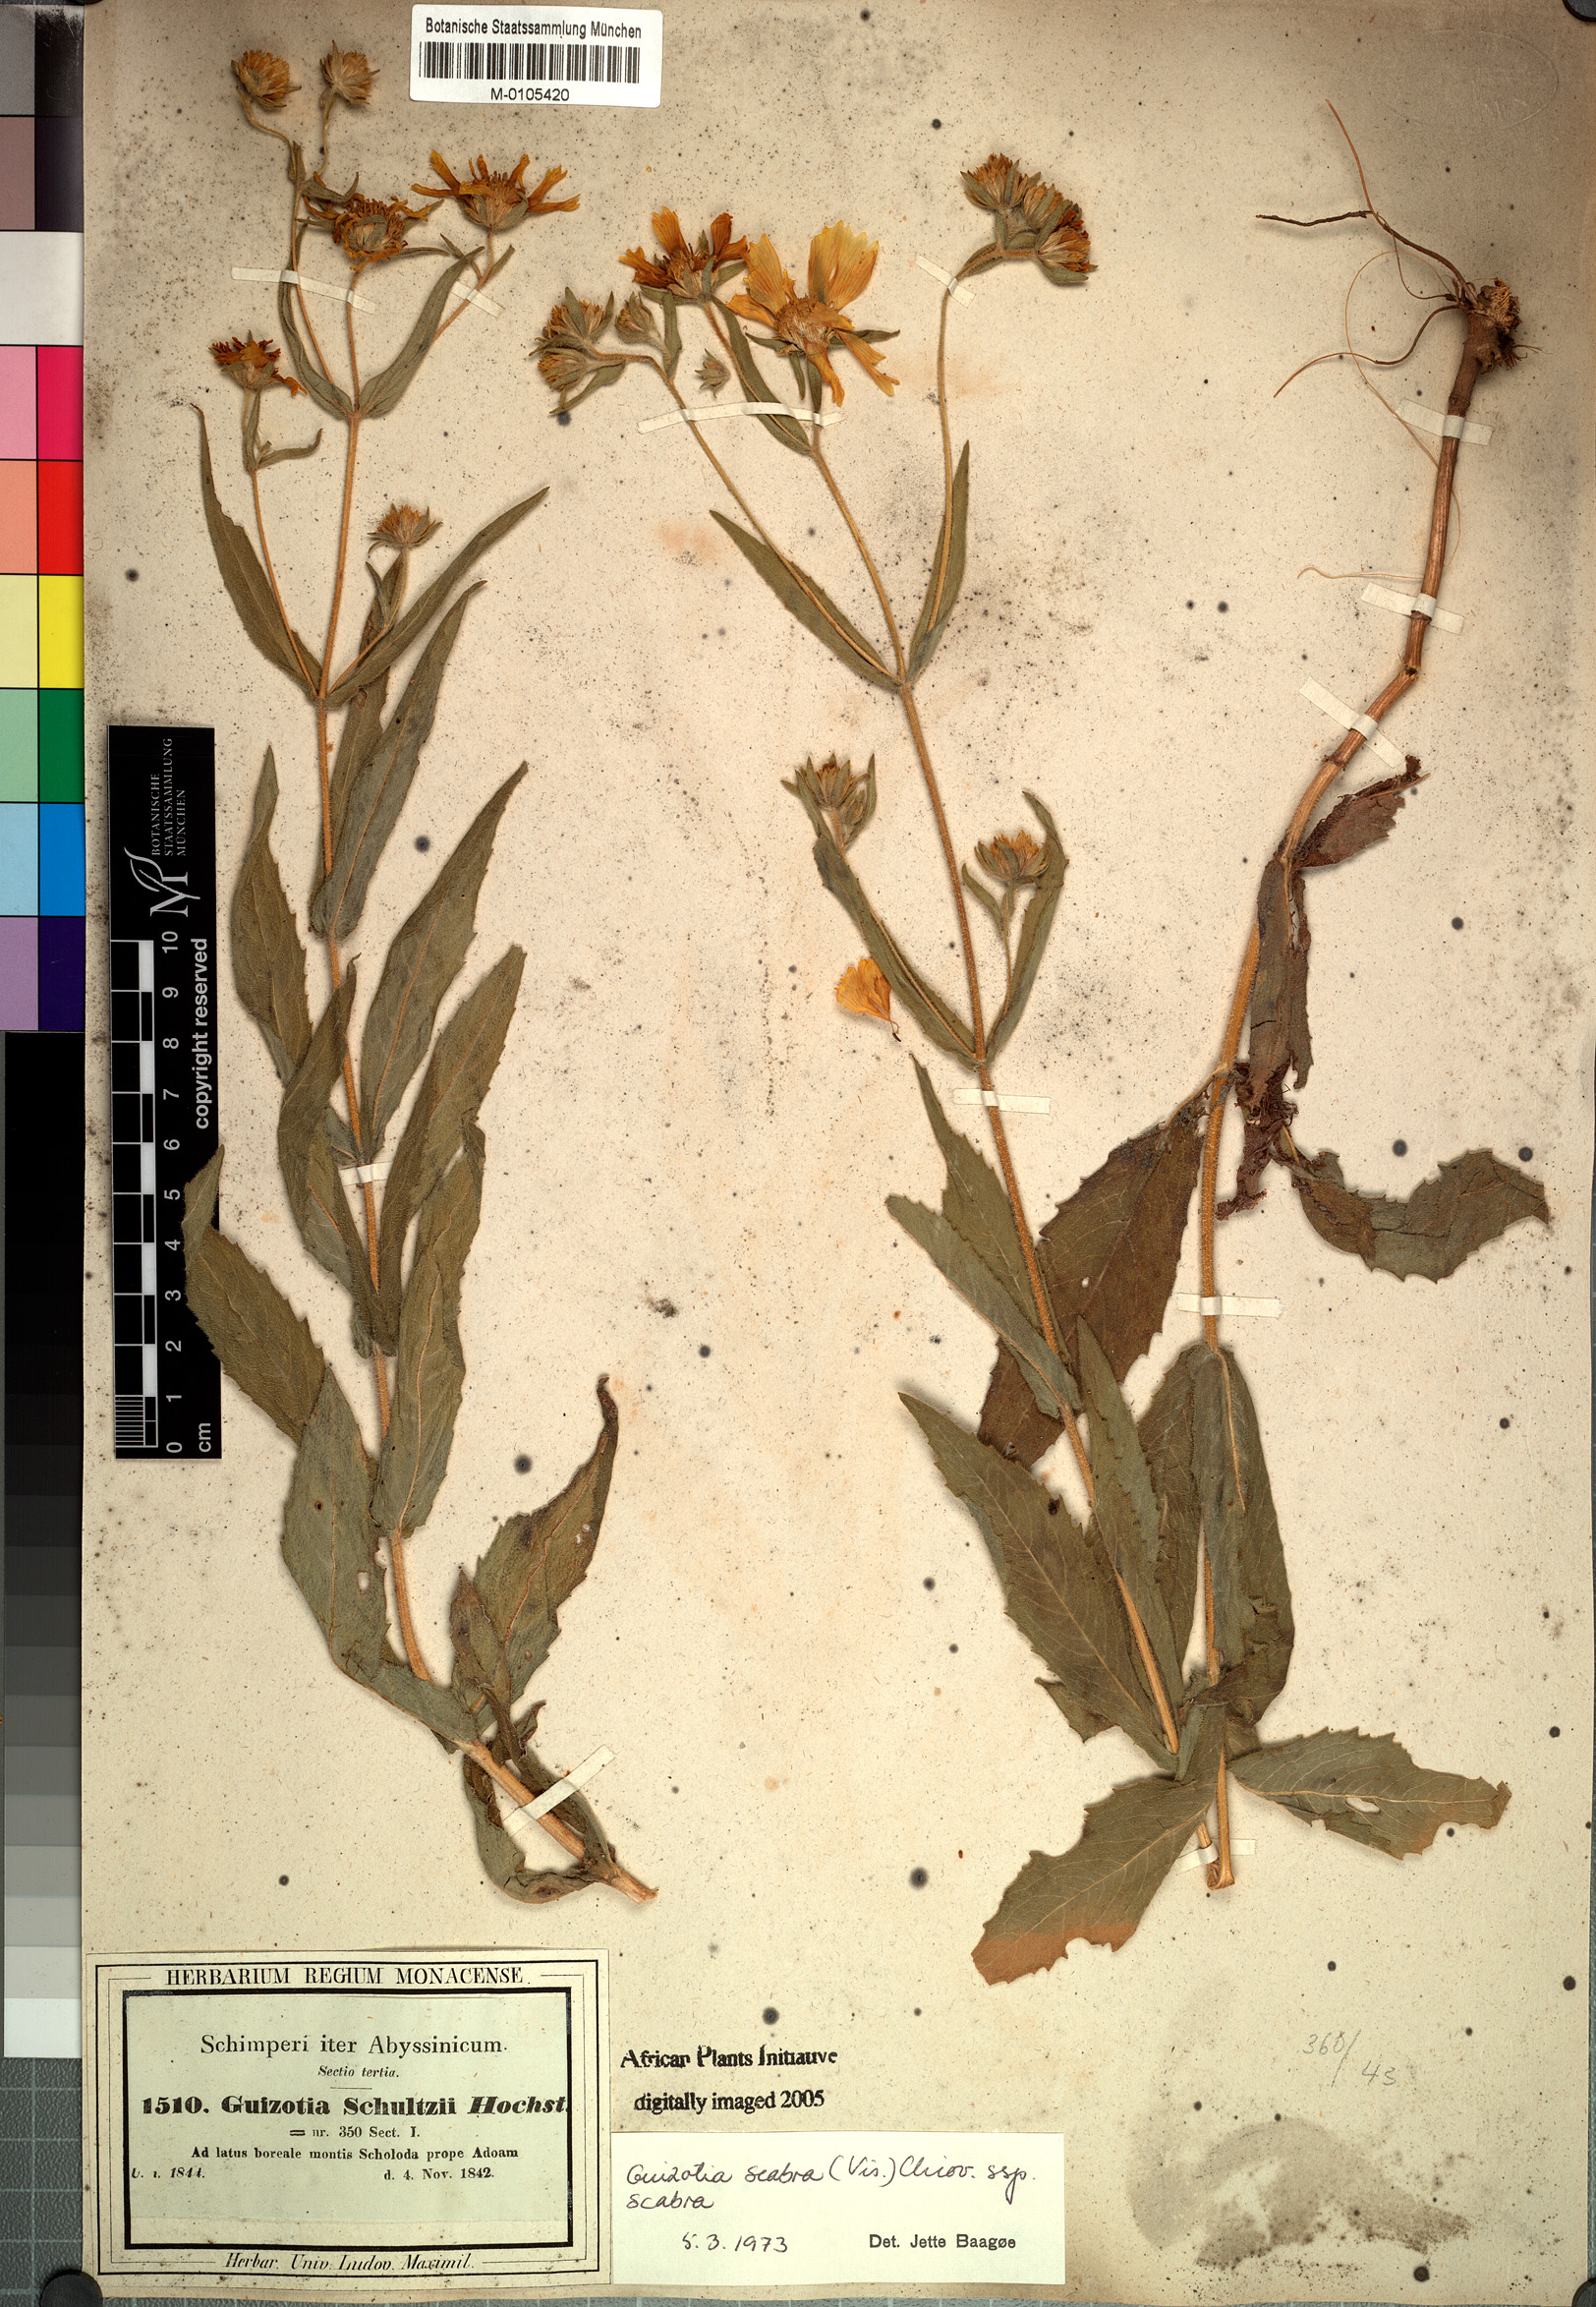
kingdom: Plantae
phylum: Tracheophyta
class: Magnoliopsida
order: Asterales
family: Asteraceae
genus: Guizotia
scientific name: Guizotia scabra
